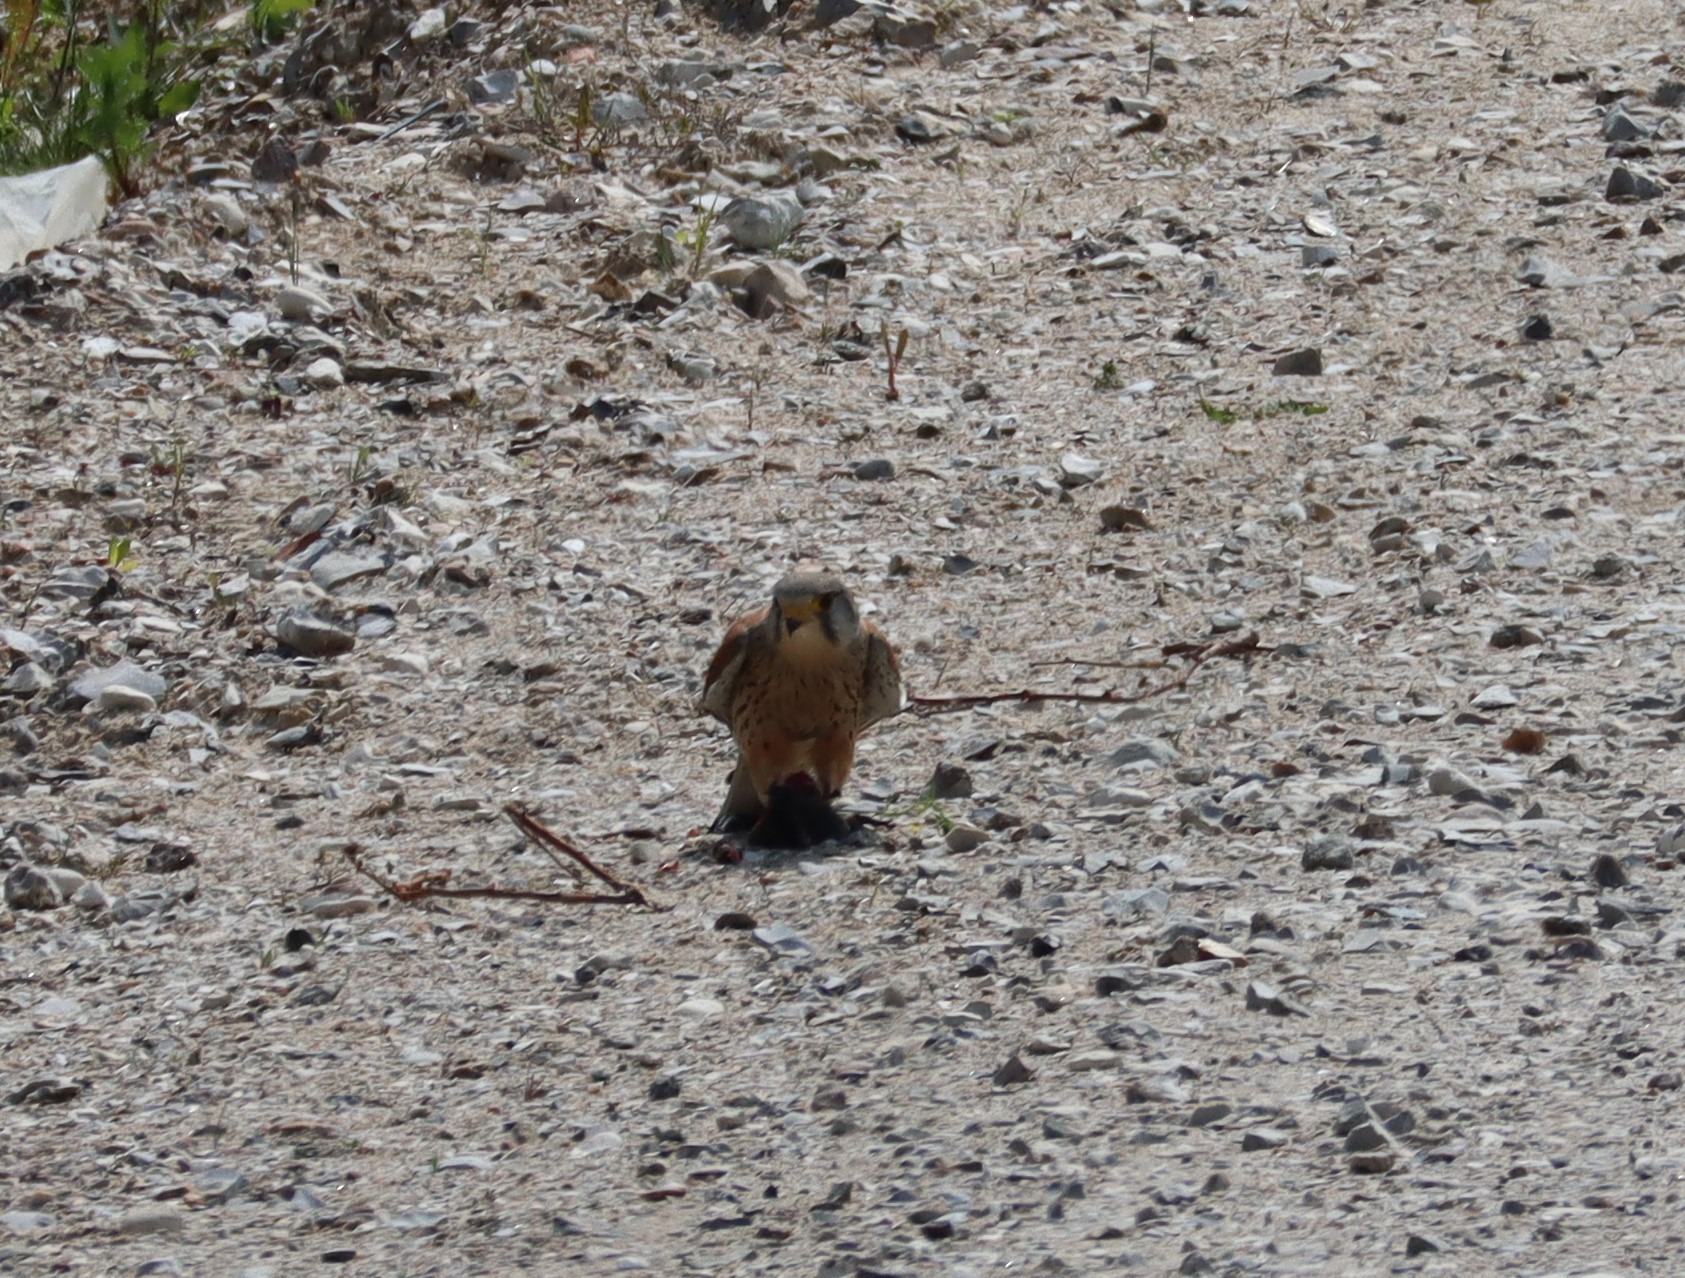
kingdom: Animalia
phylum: Chordata
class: Aves
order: Falconiformes
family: Falconidae
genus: Falco
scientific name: Falco tinnunculus
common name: Tårnfalk
